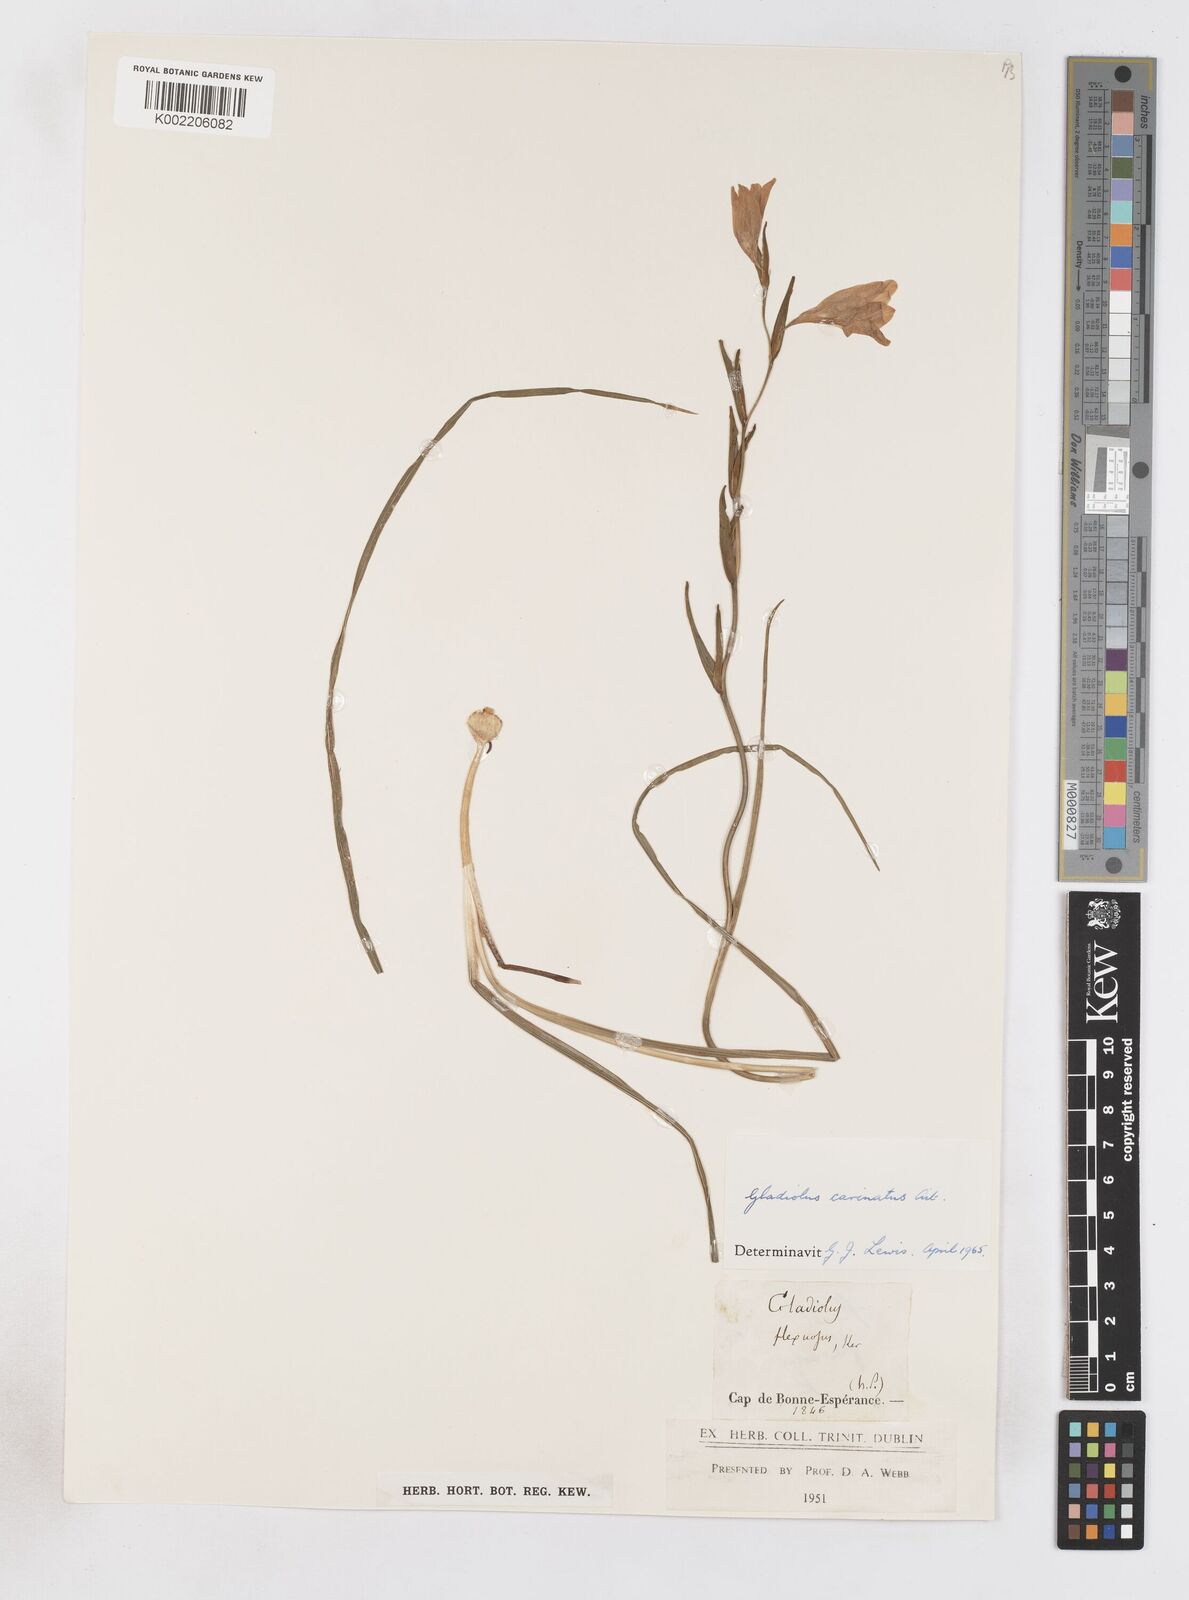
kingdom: Plantae
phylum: Tracheophyta
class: Liliopsida
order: Asparagales
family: Iridaceae
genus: Gladiolus
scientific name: Gladiolus carinatus
